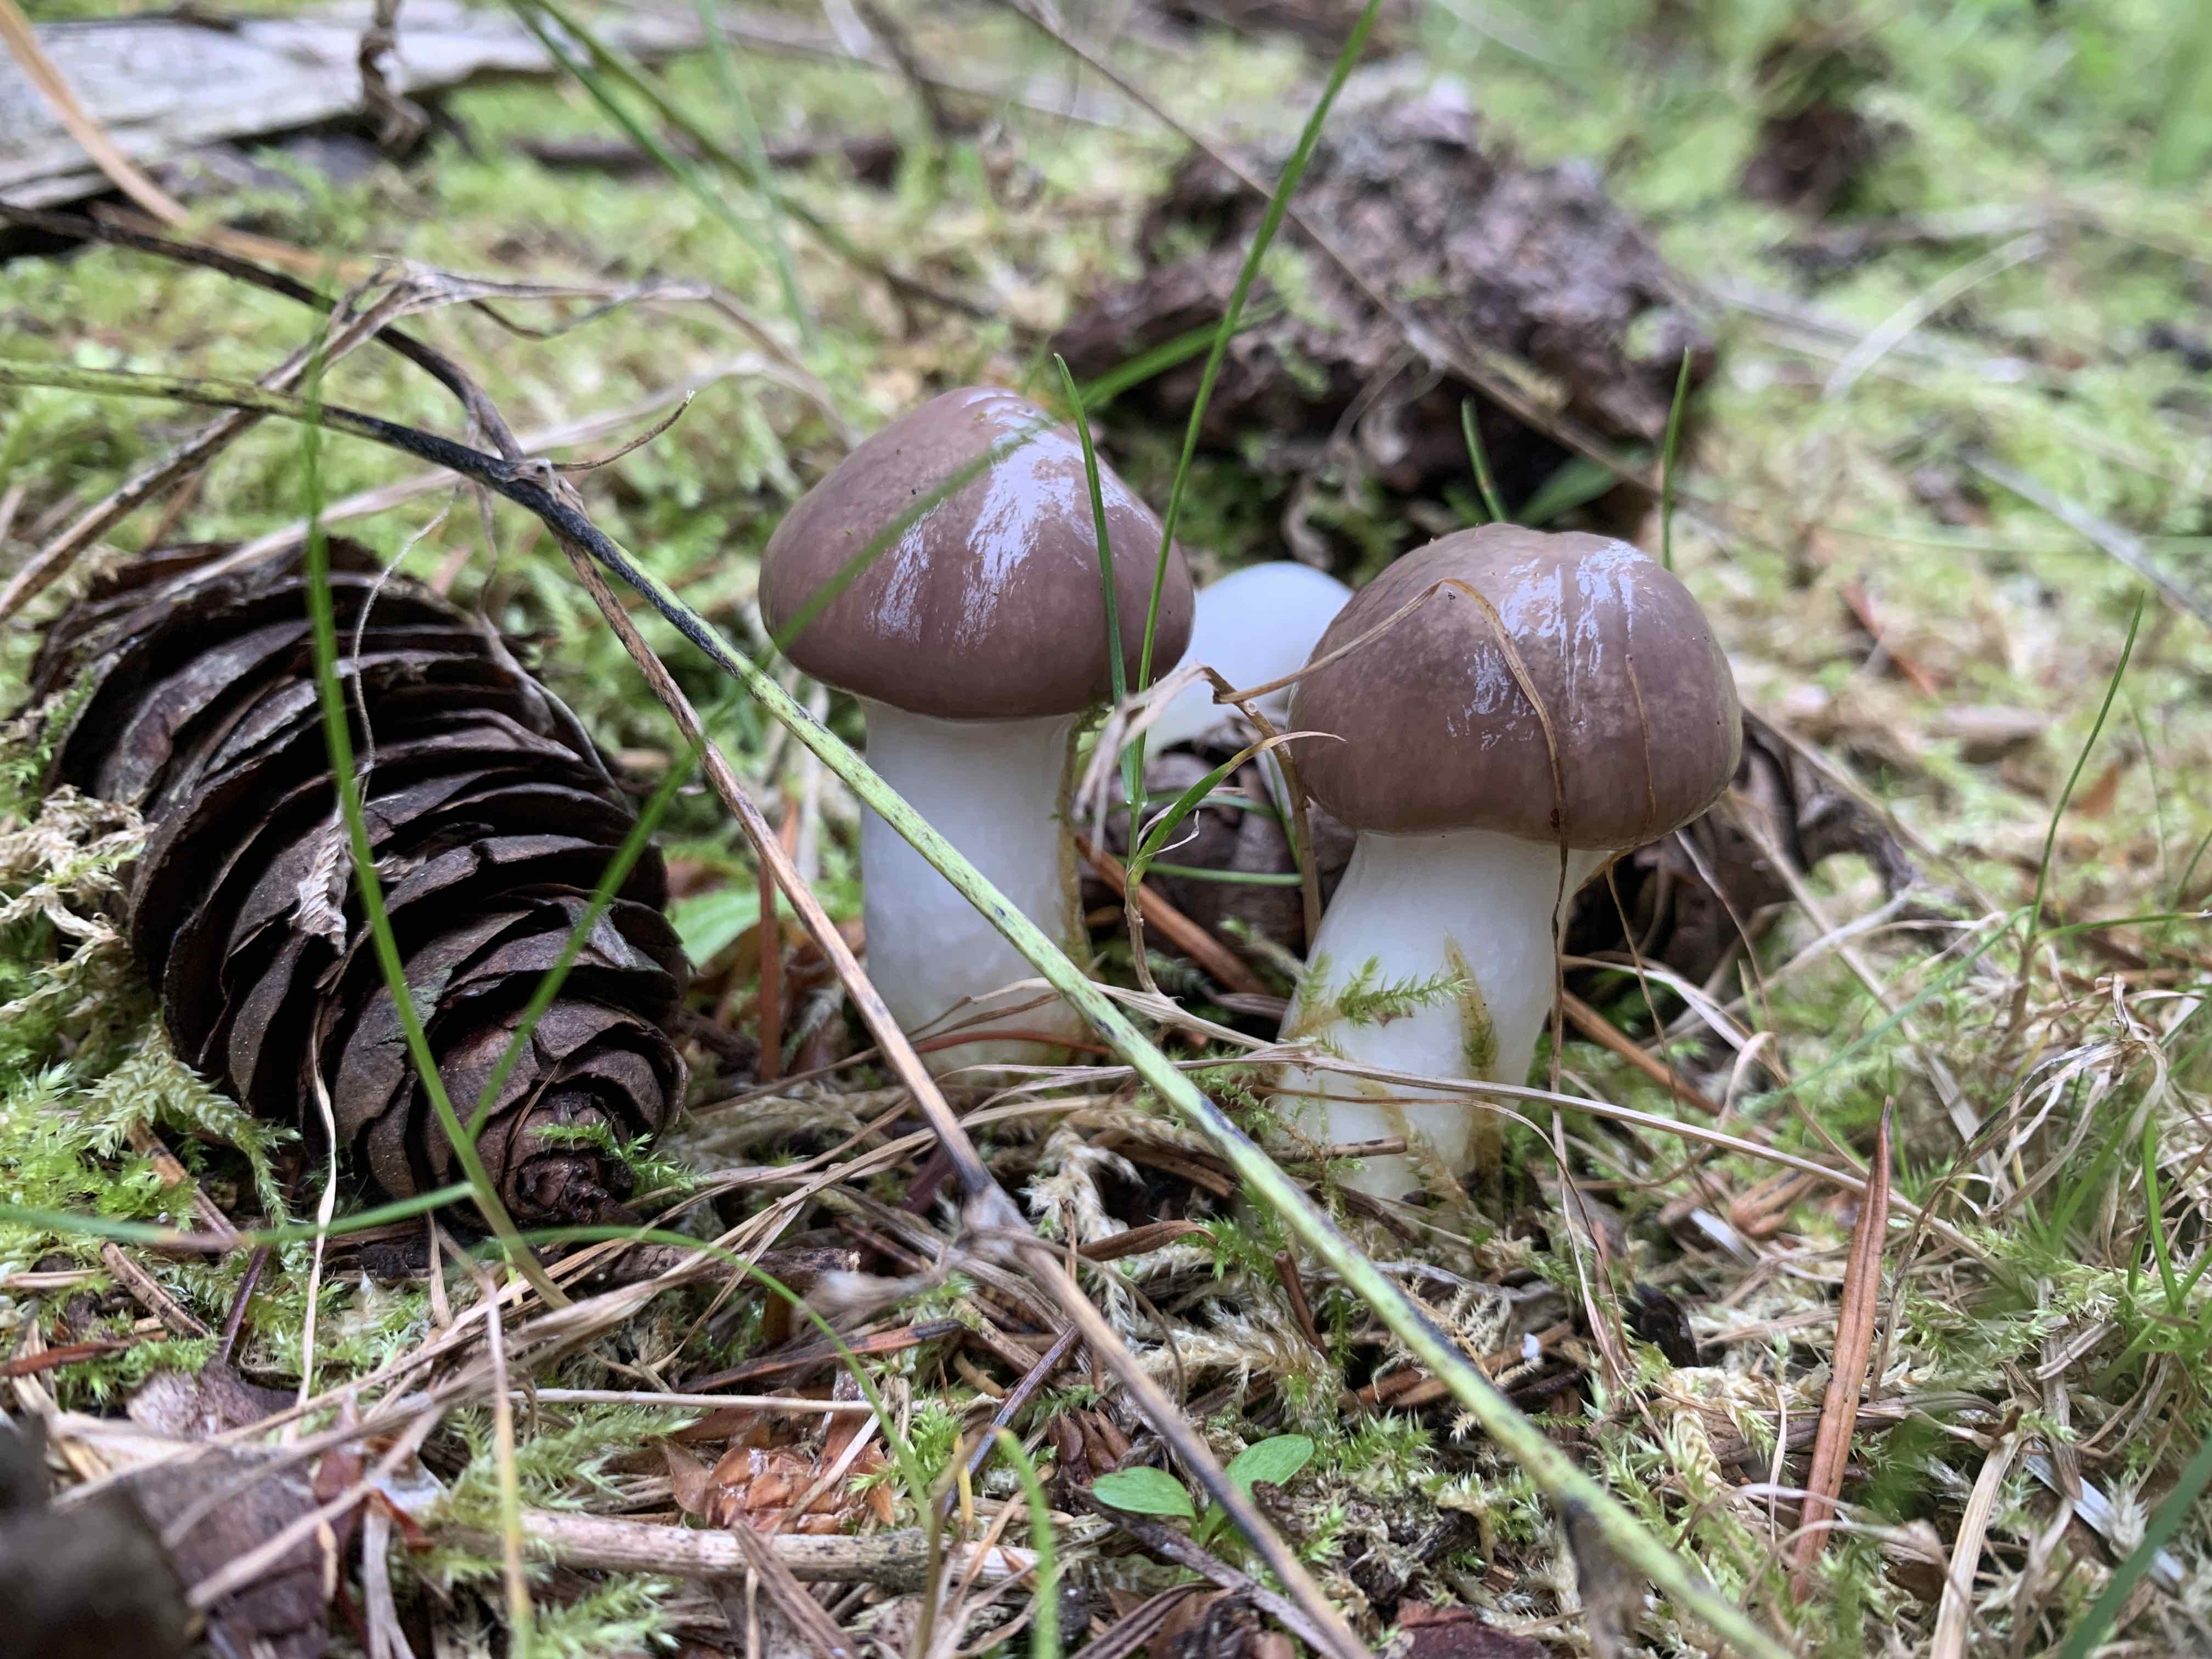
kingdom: Fungi
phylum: Basidiomycota
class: Agaricomycetes
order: Boletales
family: Gomphidiaceae
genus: Gomphidius
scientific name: Gomphidius glutinosus
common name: grå slimslør
